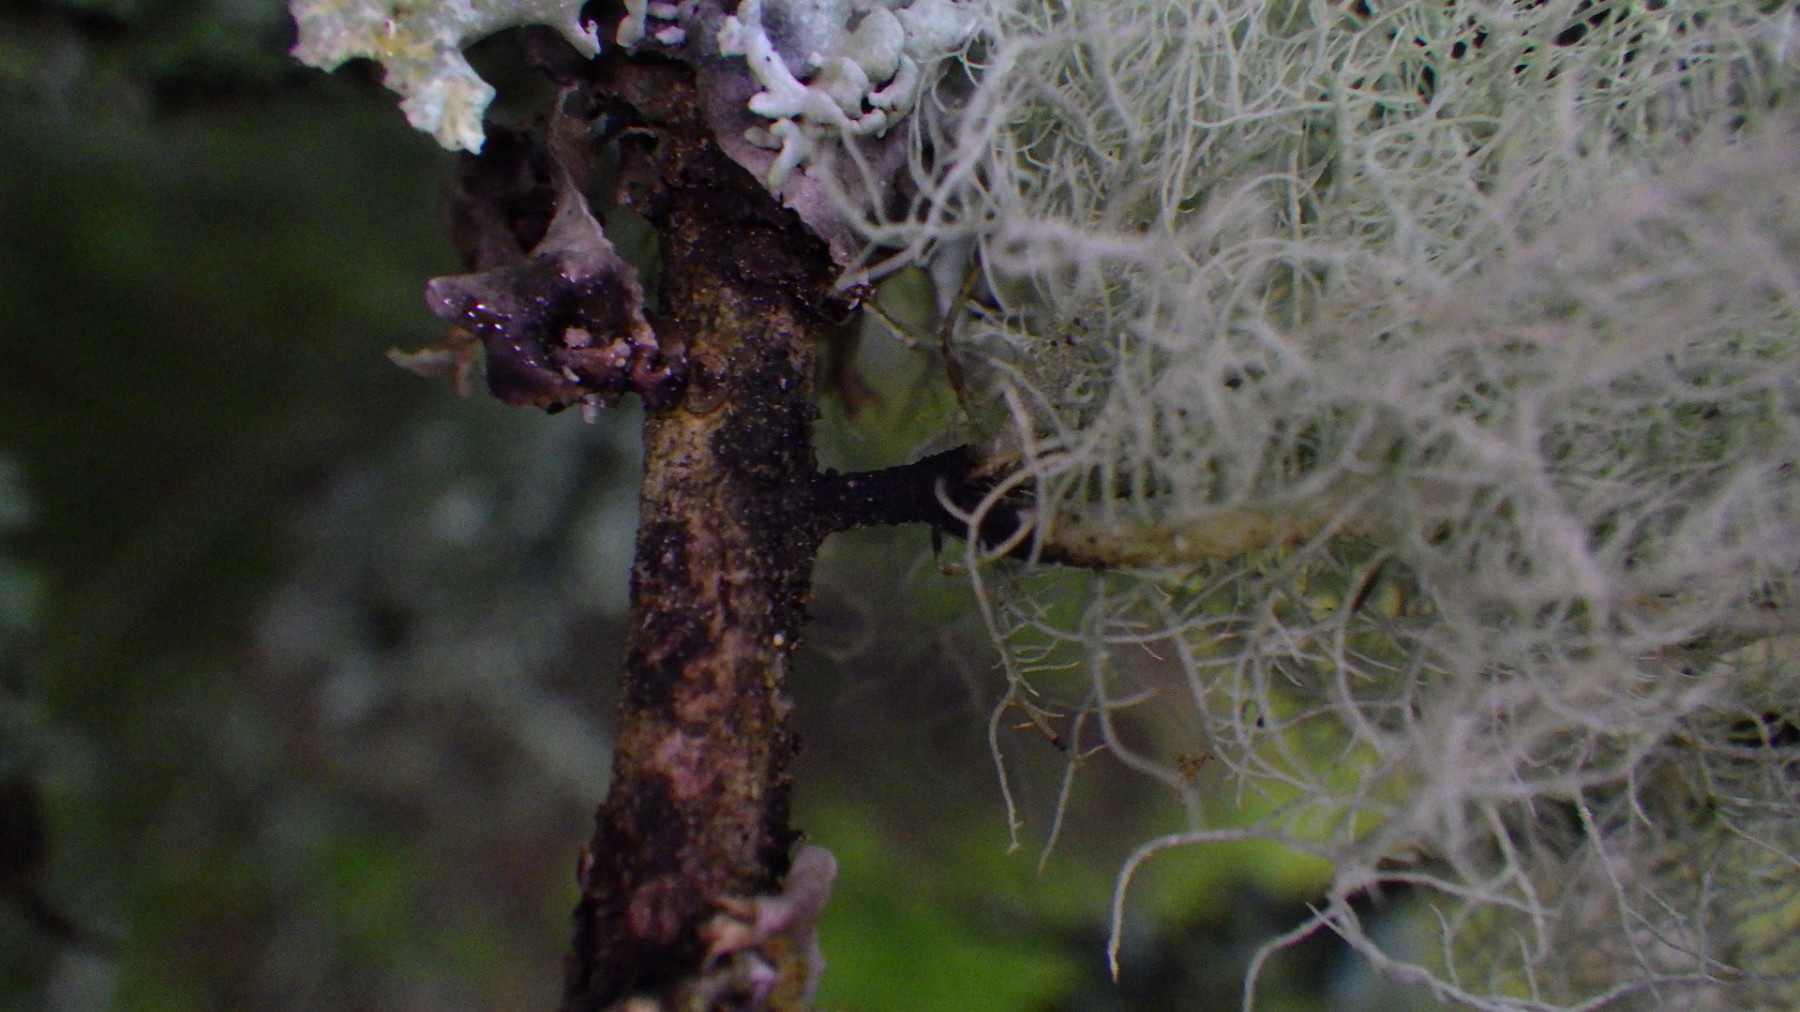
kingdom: Fungi
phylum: Ascomycota
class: Lecanoromycetes
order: Lecanorales
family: Parmeliaceae
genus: Usnea
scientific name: Usnea subfloridana
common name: busket skæglav
